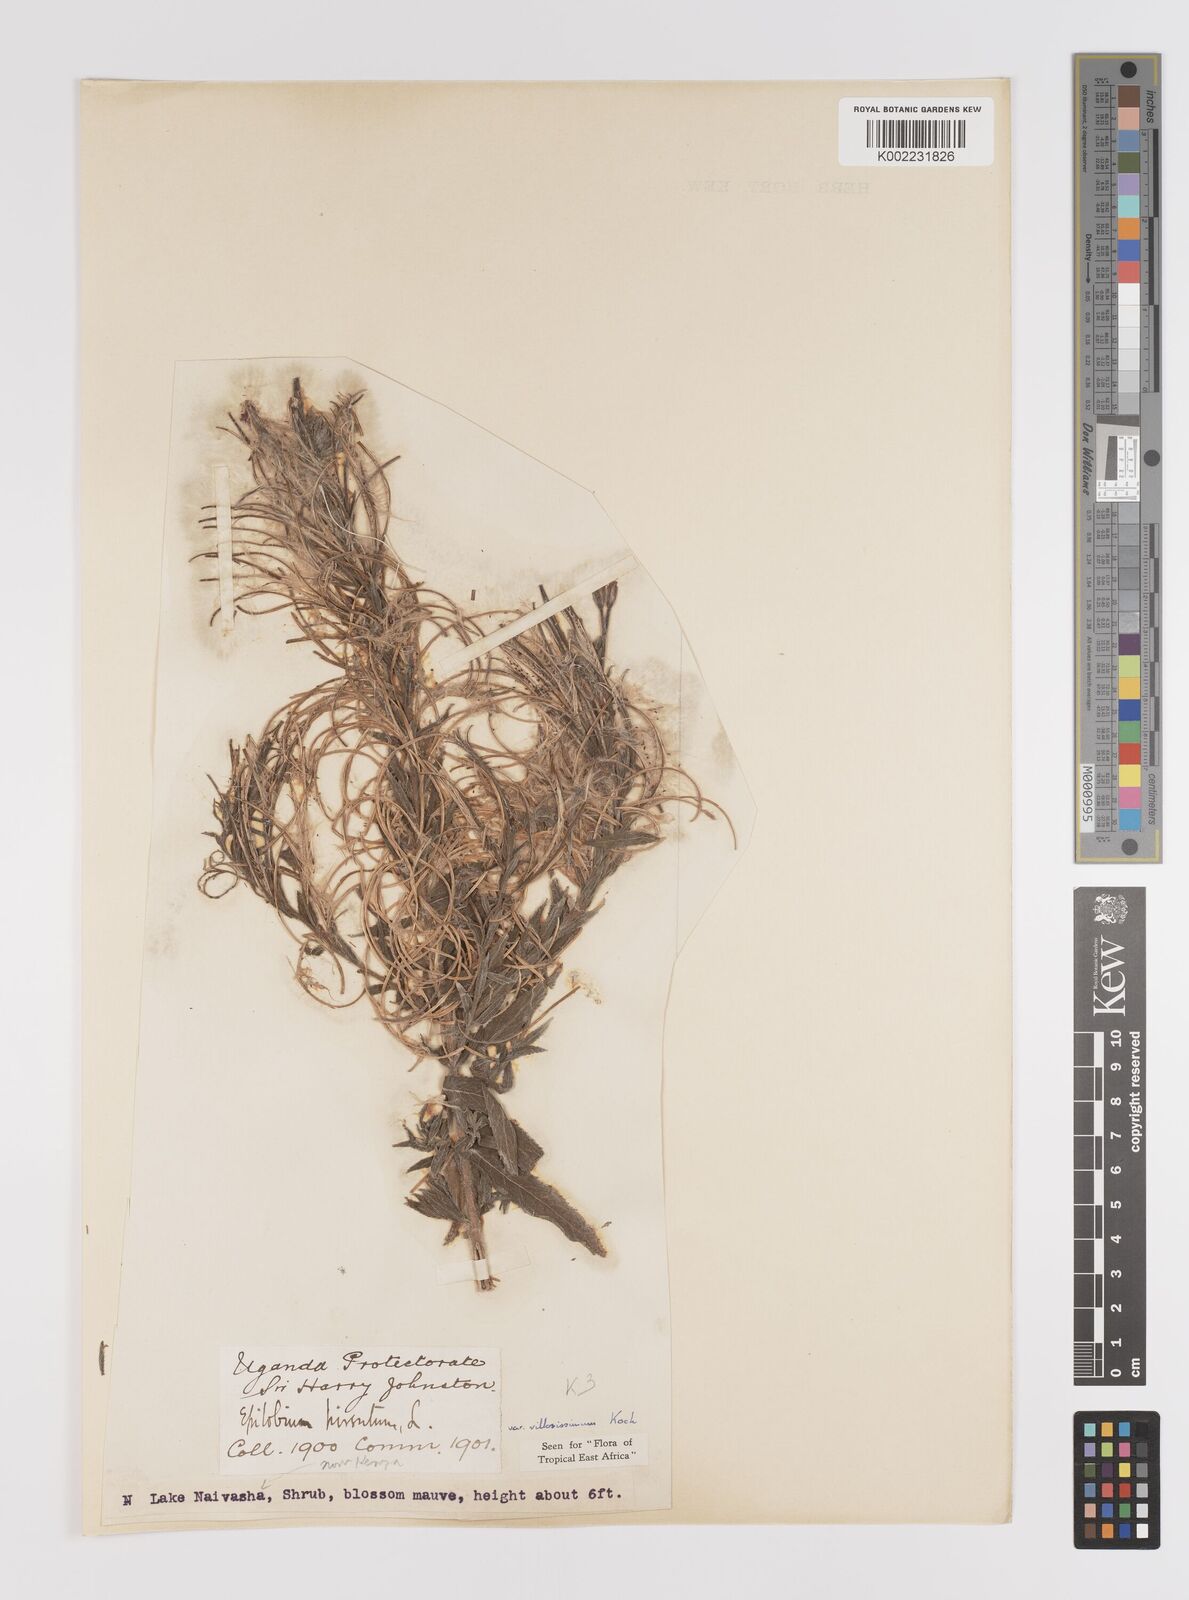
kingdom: Plantae
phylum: Tracheophyta
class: Magnoliopsida
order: Myrtales
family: Onagraceae
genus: Epilobium
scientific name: Epilobium hirsutum
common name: Great willowherb
